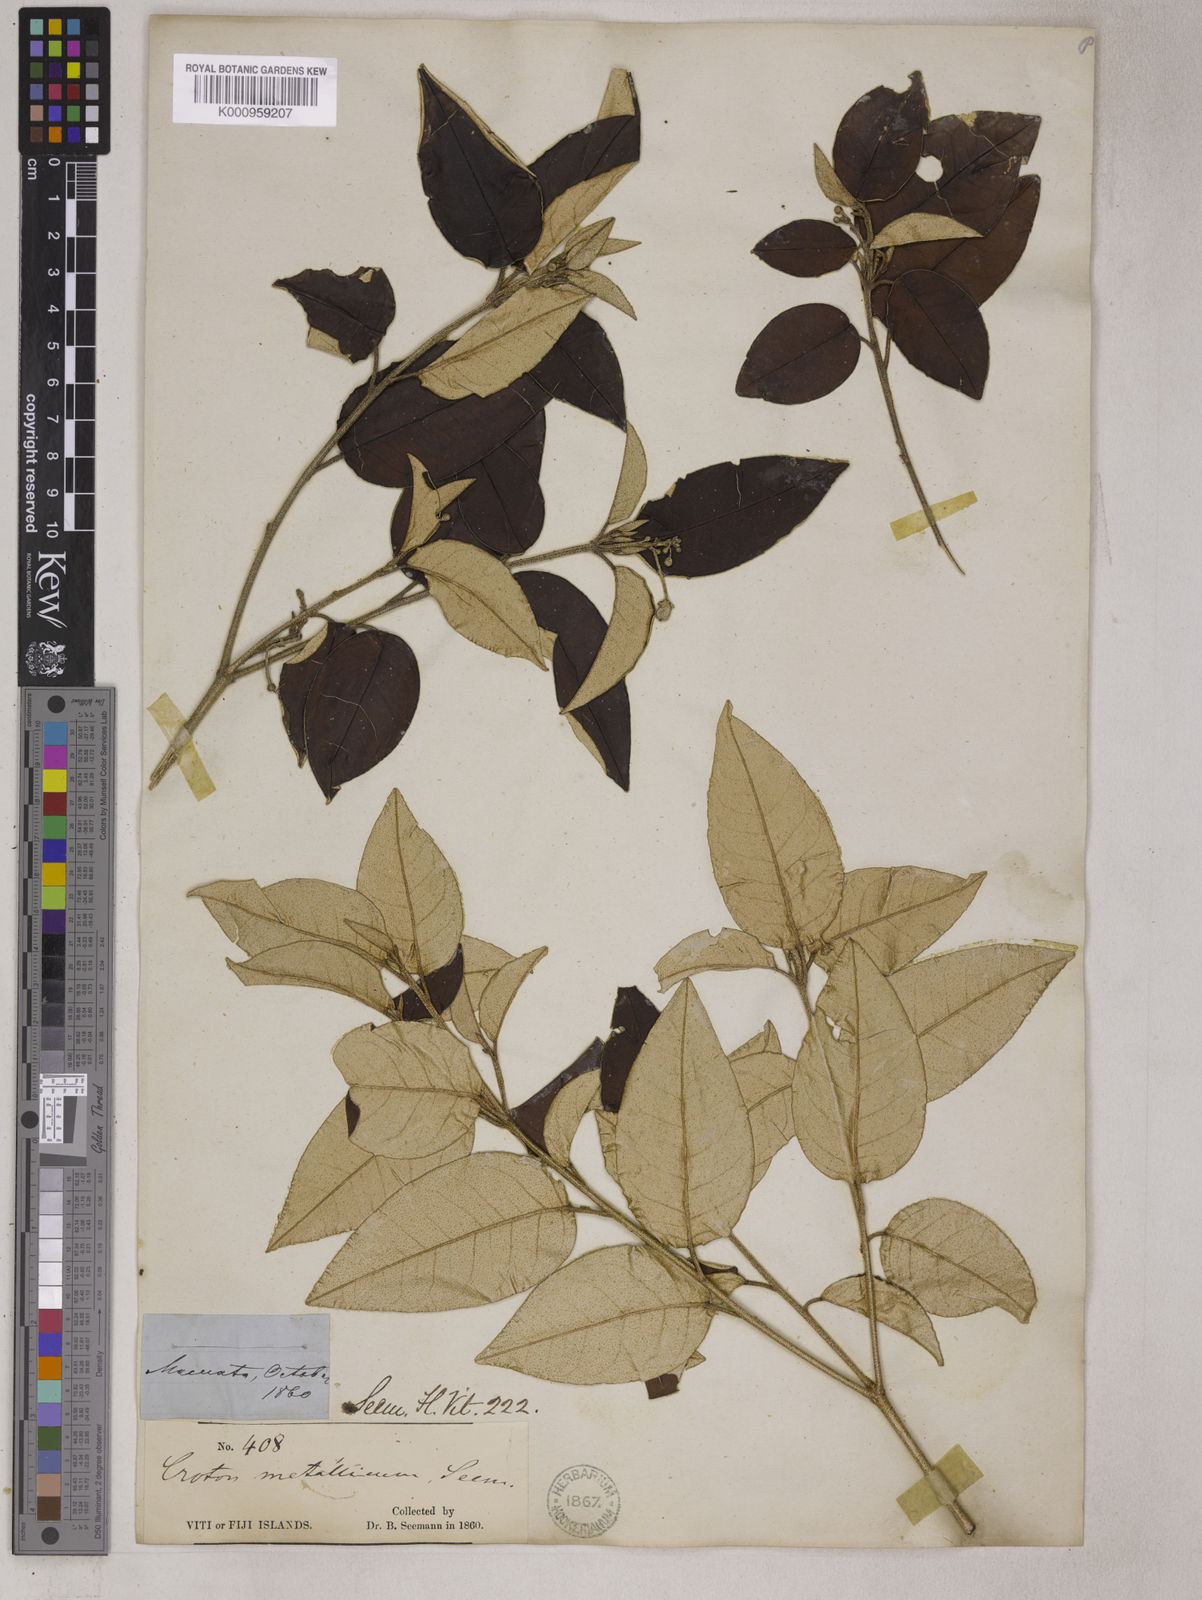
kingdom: Plantae
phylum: Tracheophyta
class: Magnoliopsida
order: Malpighiales
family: Euphorbiaceae
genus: Croton
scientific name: Croton
